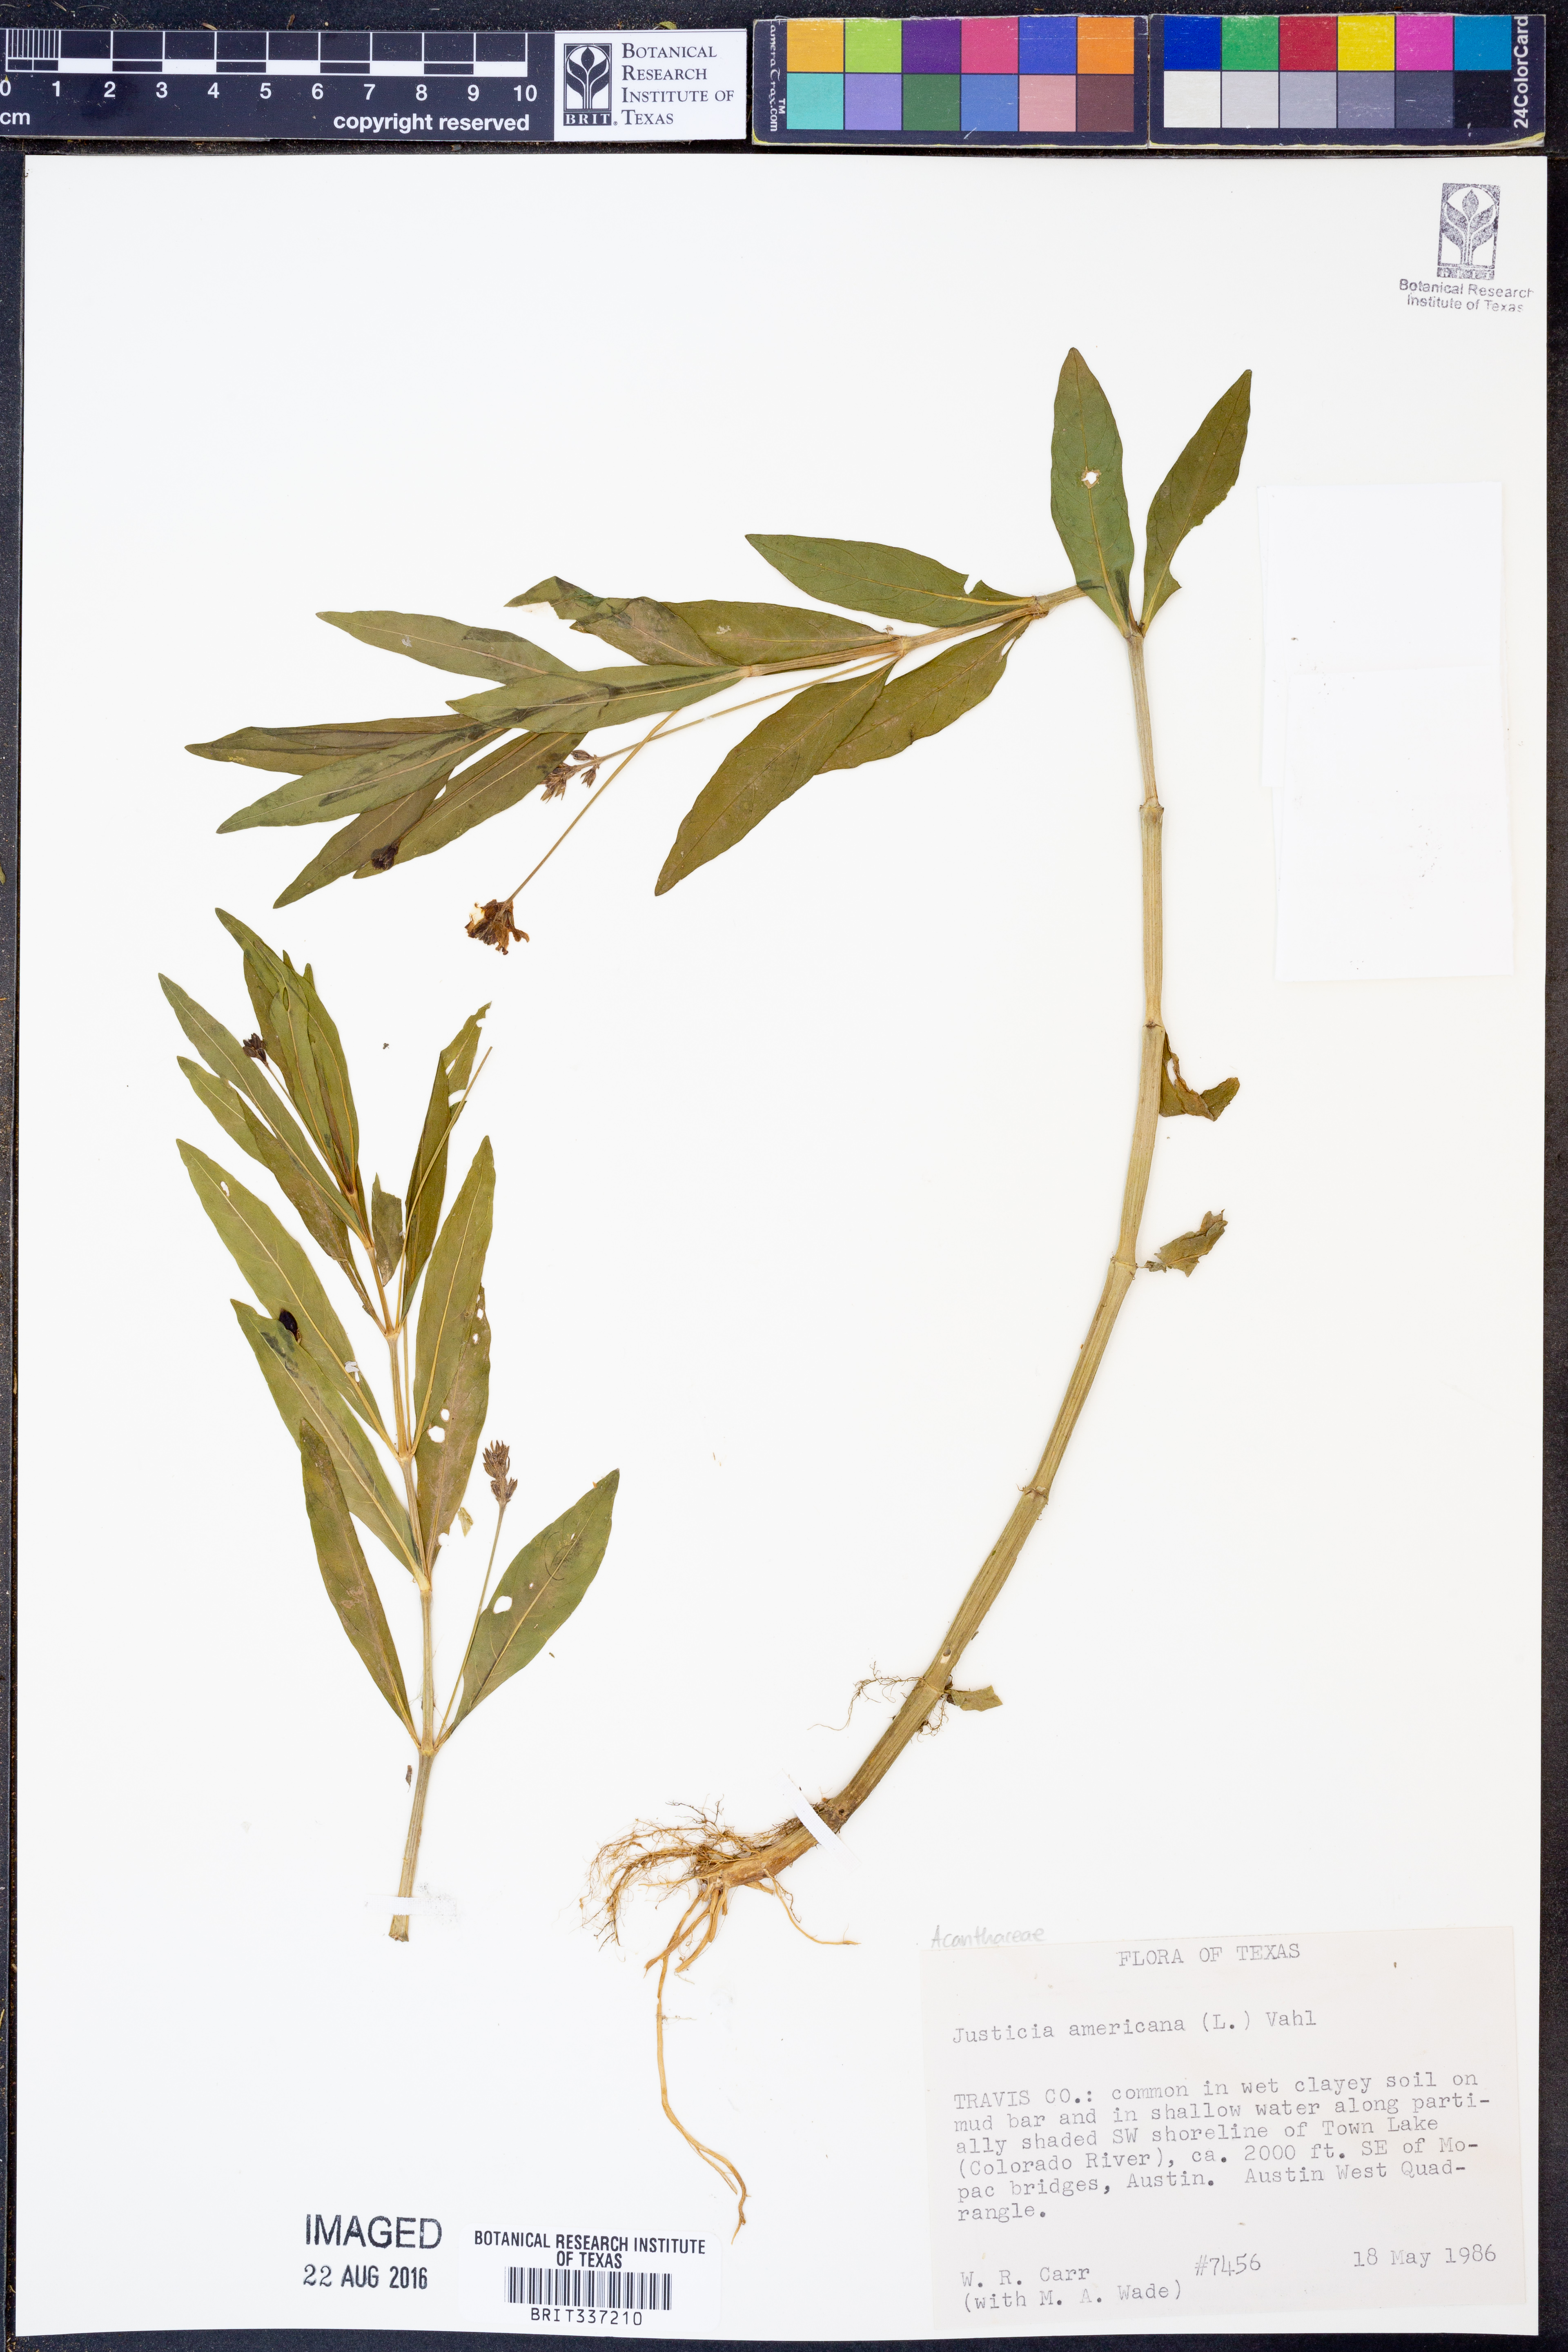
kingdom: Plantae
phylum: Tracheophyta
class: Magnoliopsida
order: Lamiales
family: Acanthaceae
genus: Dianthera
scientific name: Dianthera americana
